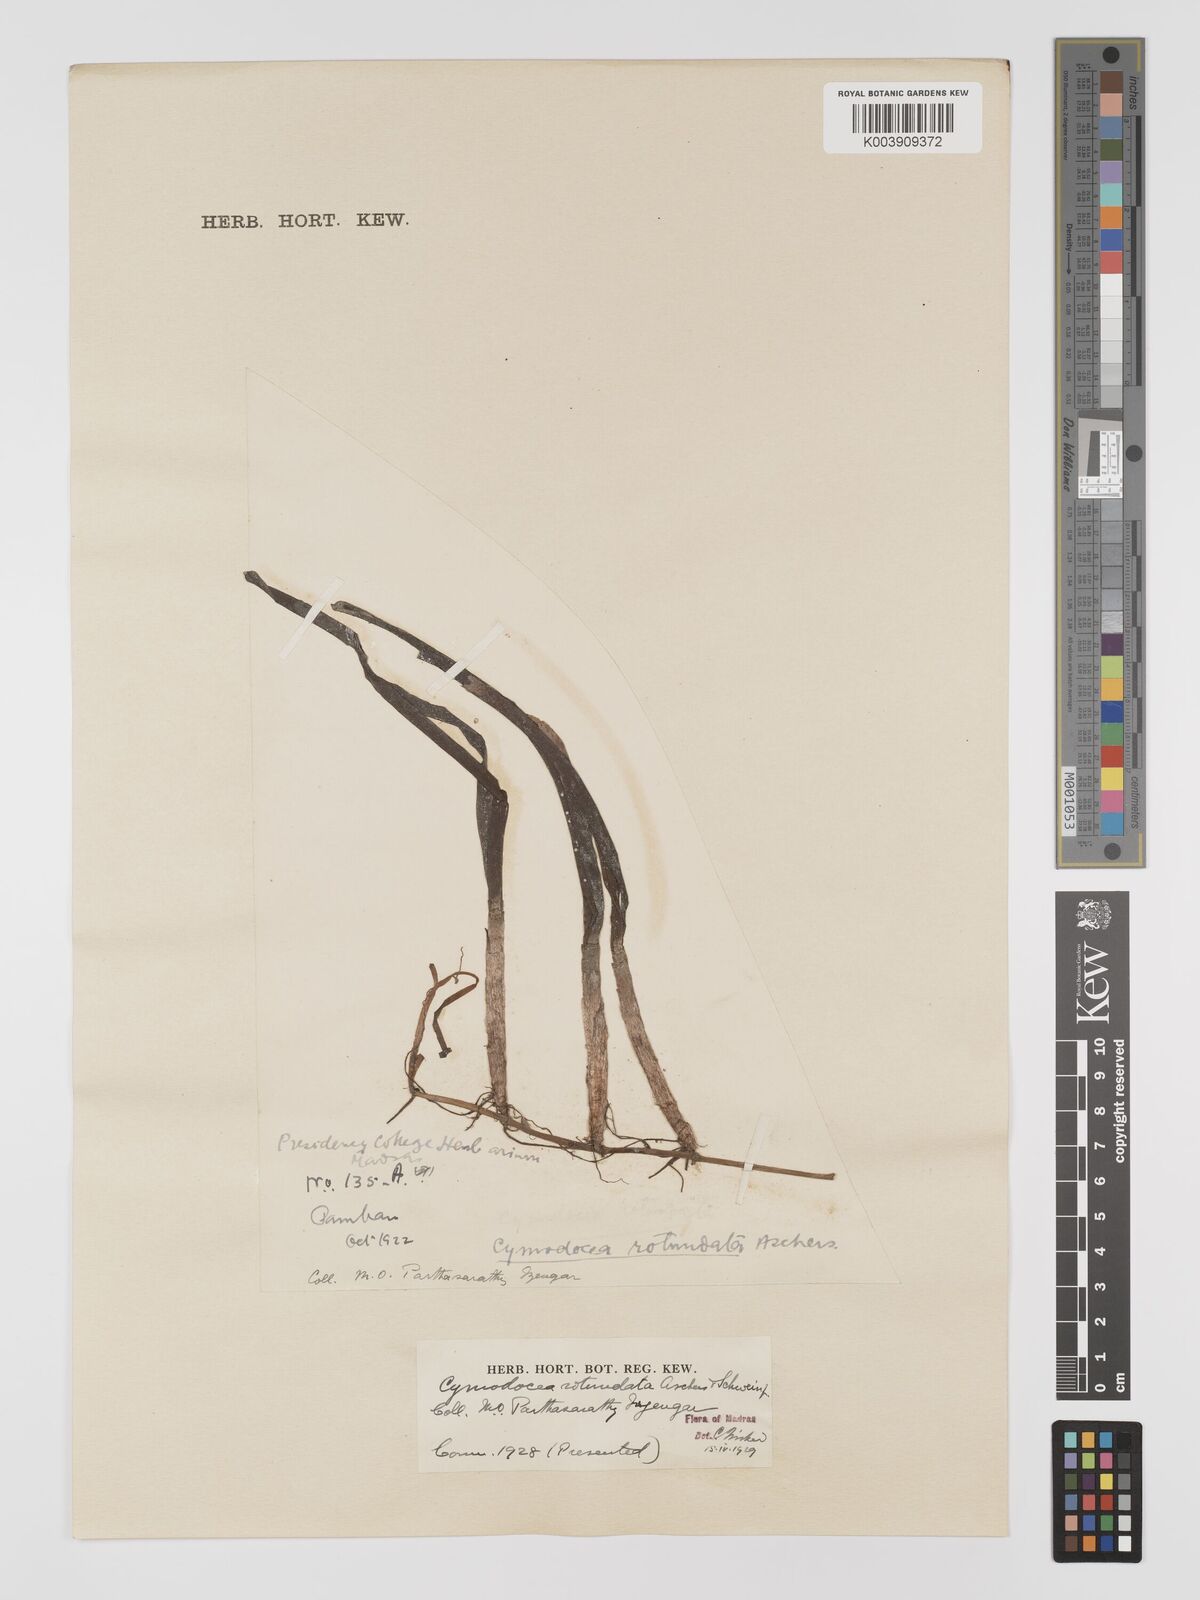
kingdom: Plantae
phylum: Tracheophyta
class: Liliopsida
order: Alismatales
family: Cymodoceaceae
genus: Cymodocea
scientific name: Cymodocea rotundata
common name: Species code: cr
